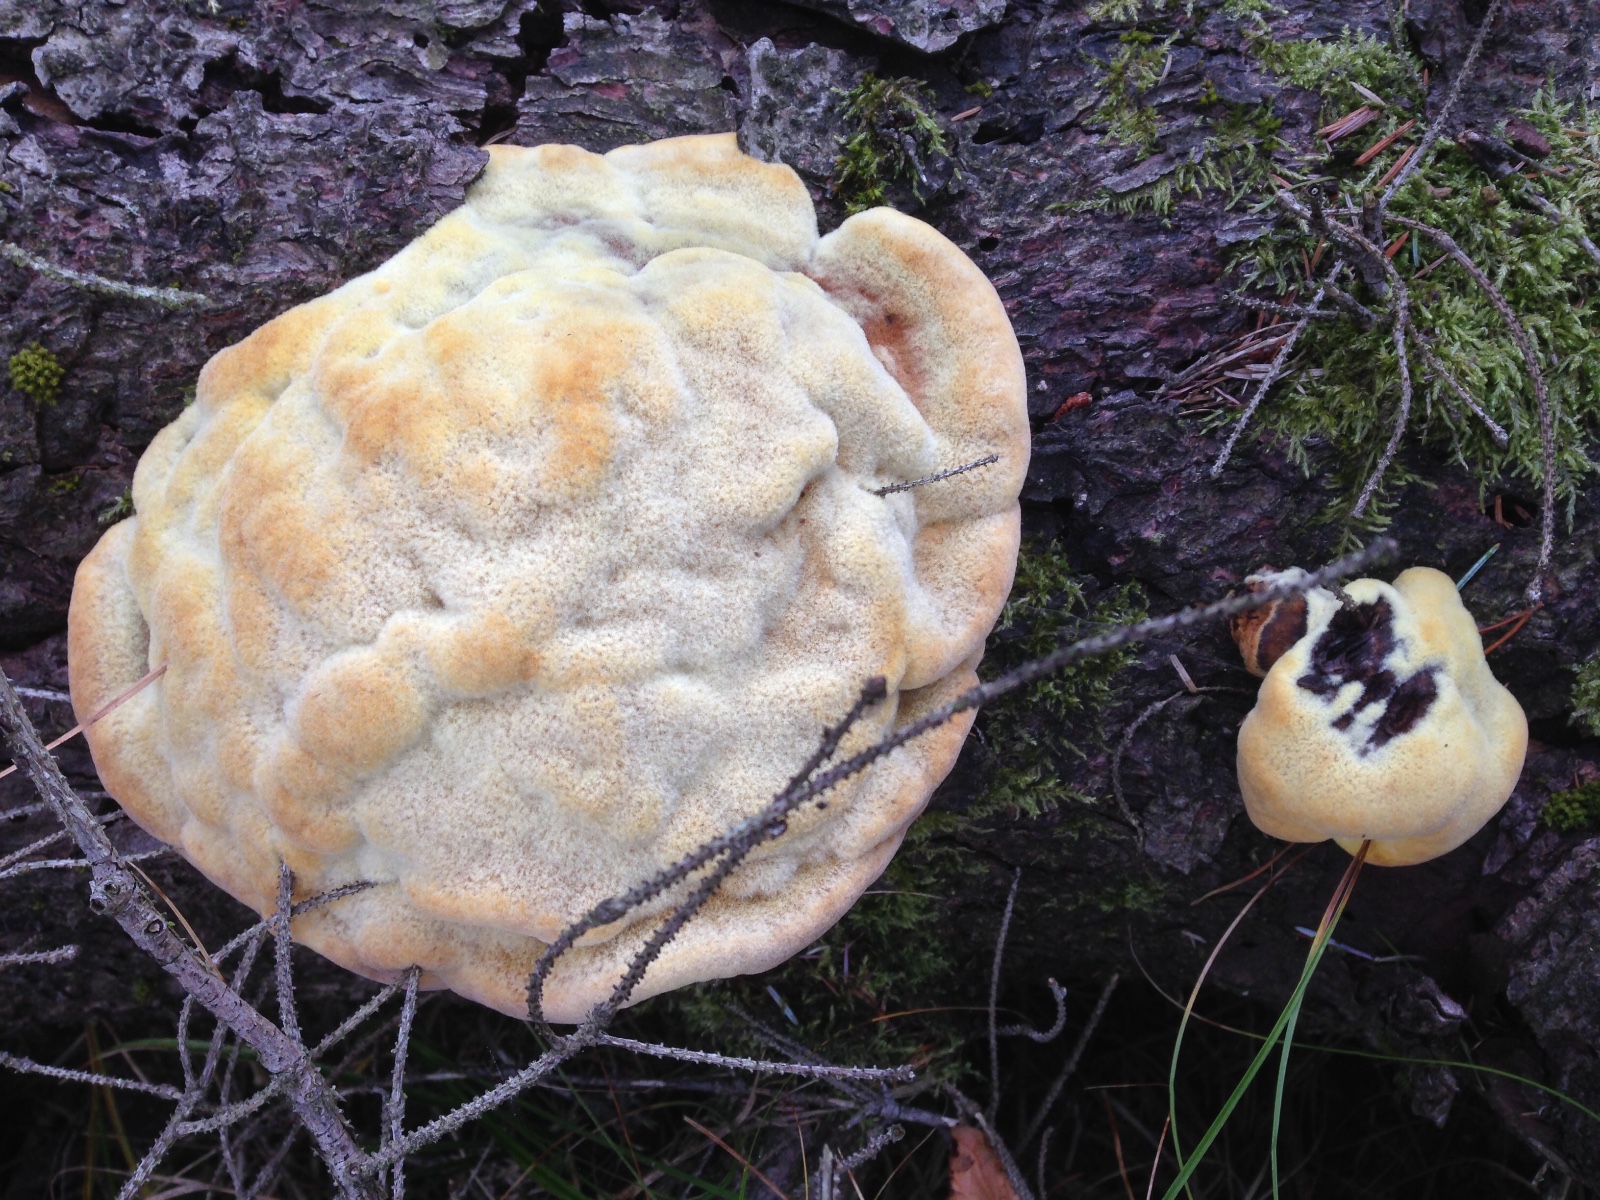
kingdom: Fungi
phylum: Basidiomycota
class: Agaricomycetes
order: Polyporales
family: Laetiporaceae
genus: Phaeolus
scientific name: Phaeolus schweinitzii
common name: brunporesvamp
